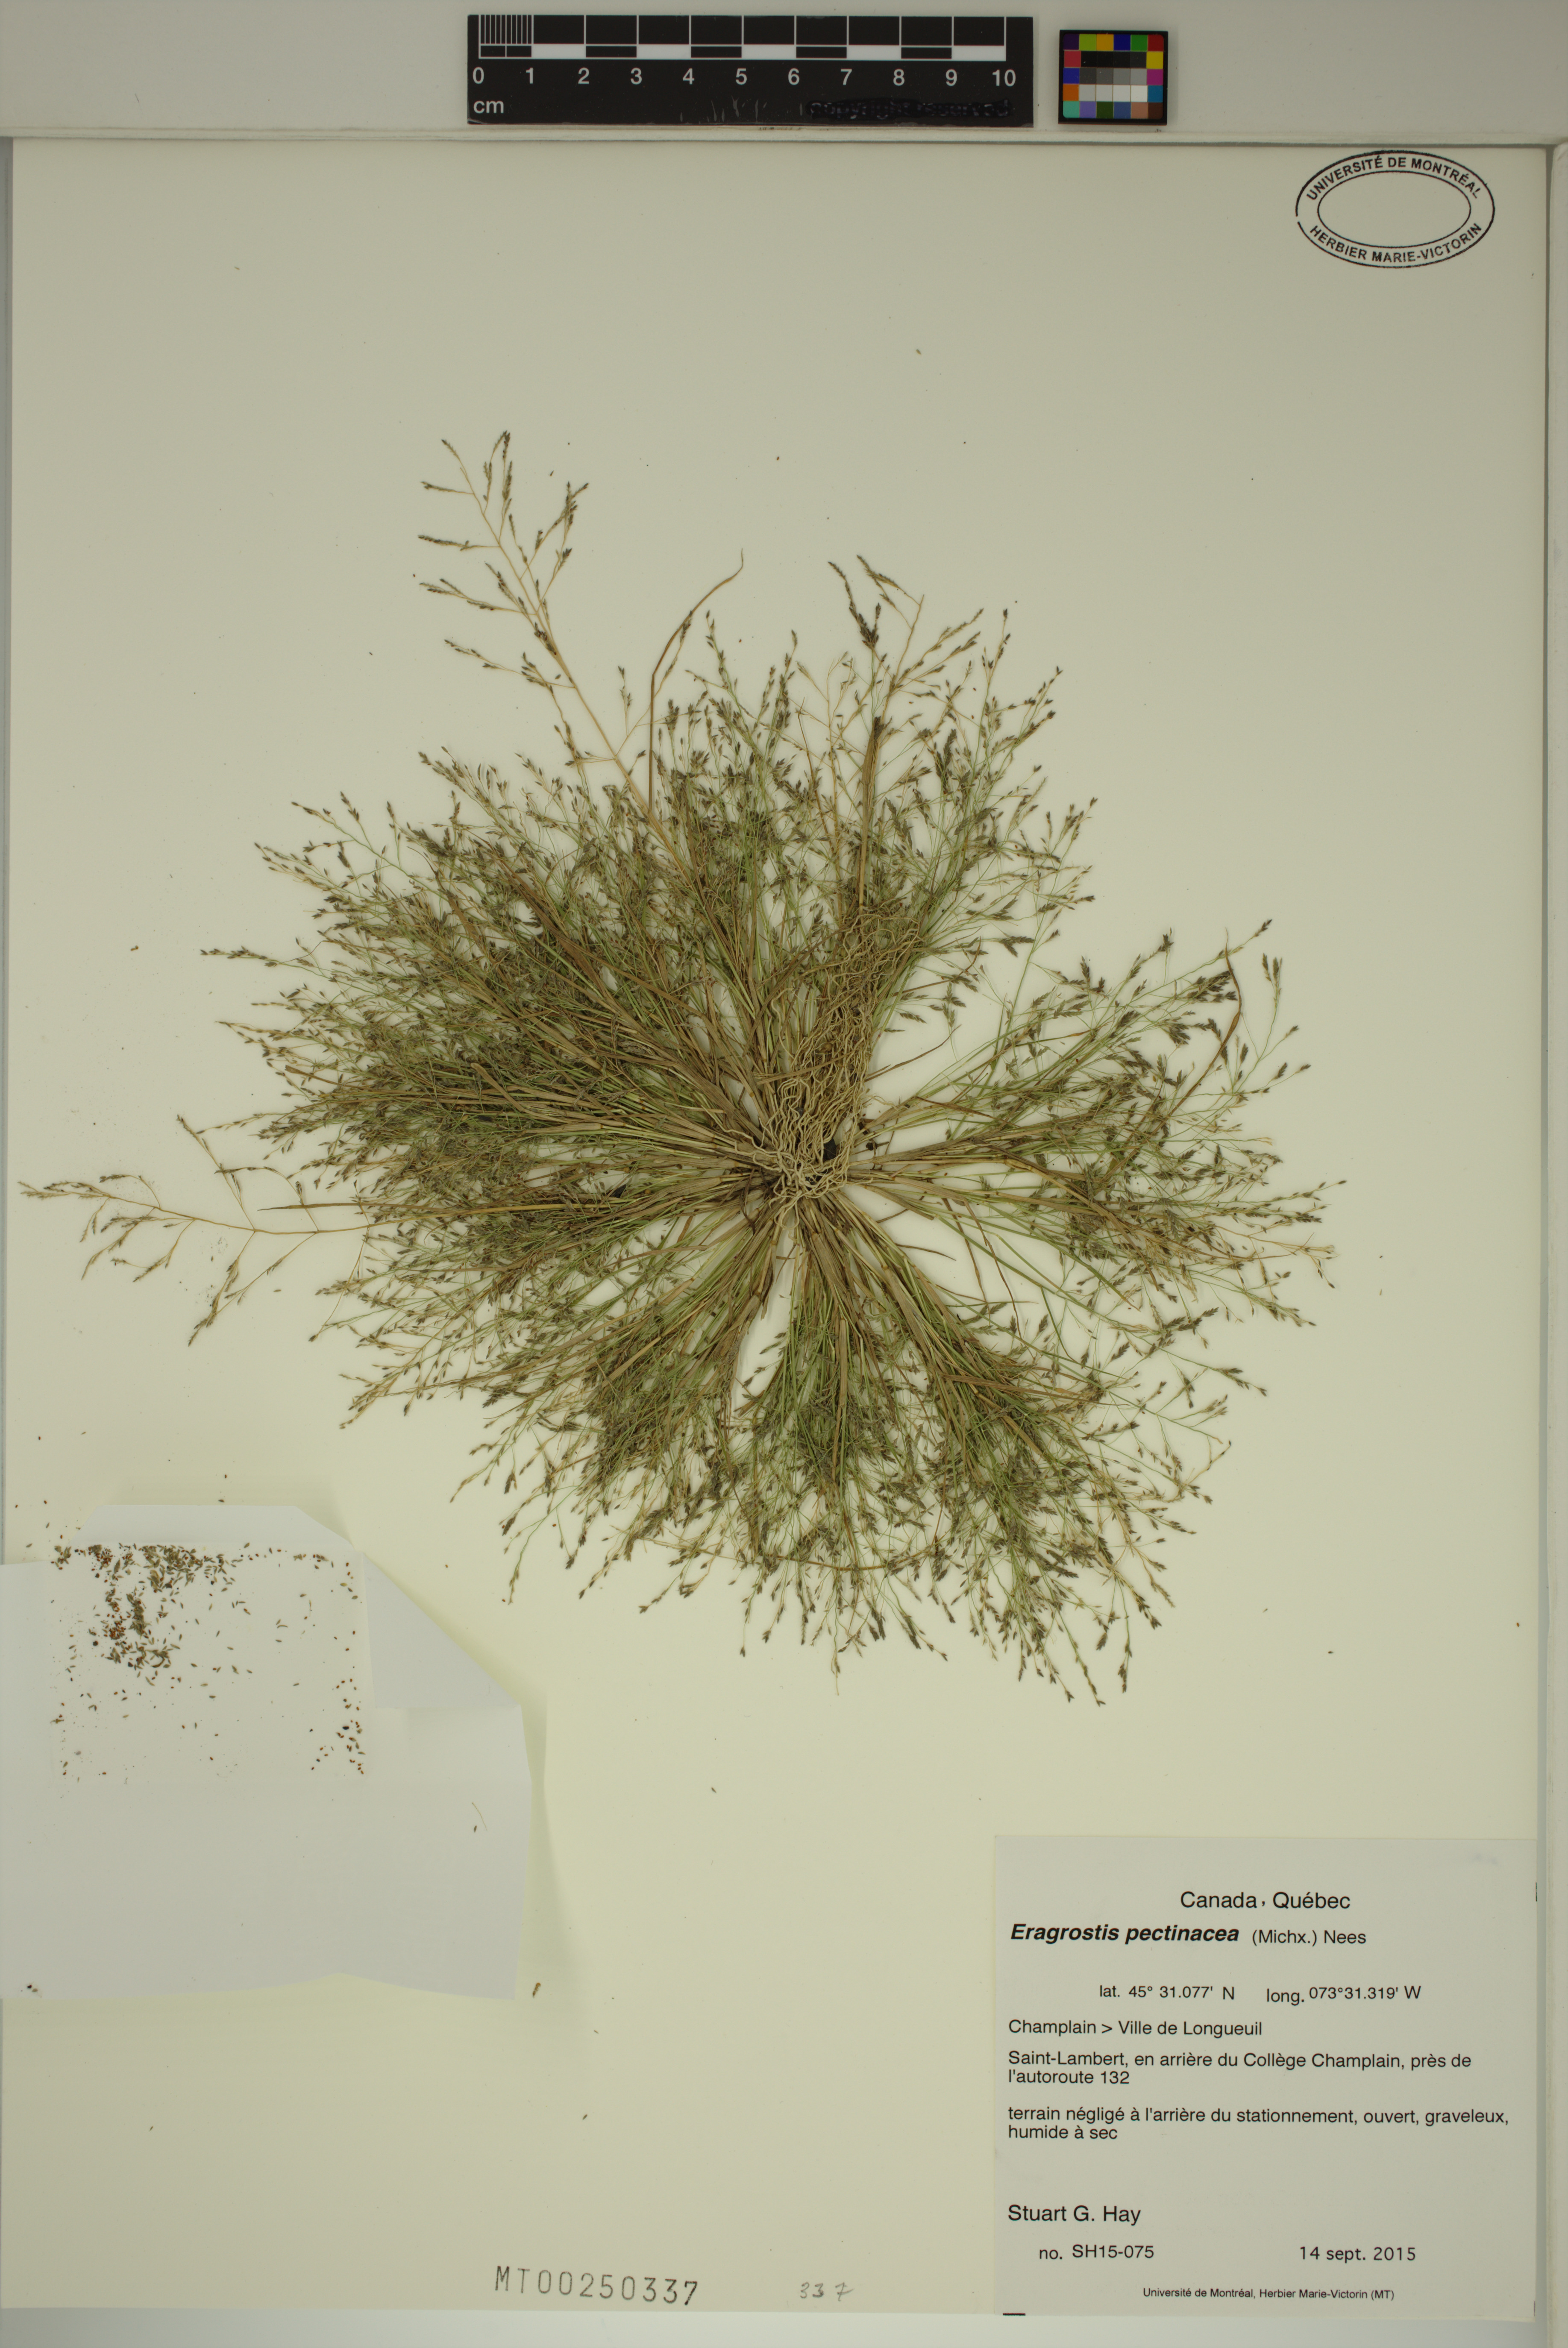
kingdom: Plantae
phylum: Tracheophyta
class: Liliopsida
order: Poales
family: Poaceae
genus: Eragrostis
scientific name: Eragrostis pectinacea
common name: Tufted lovegrass
